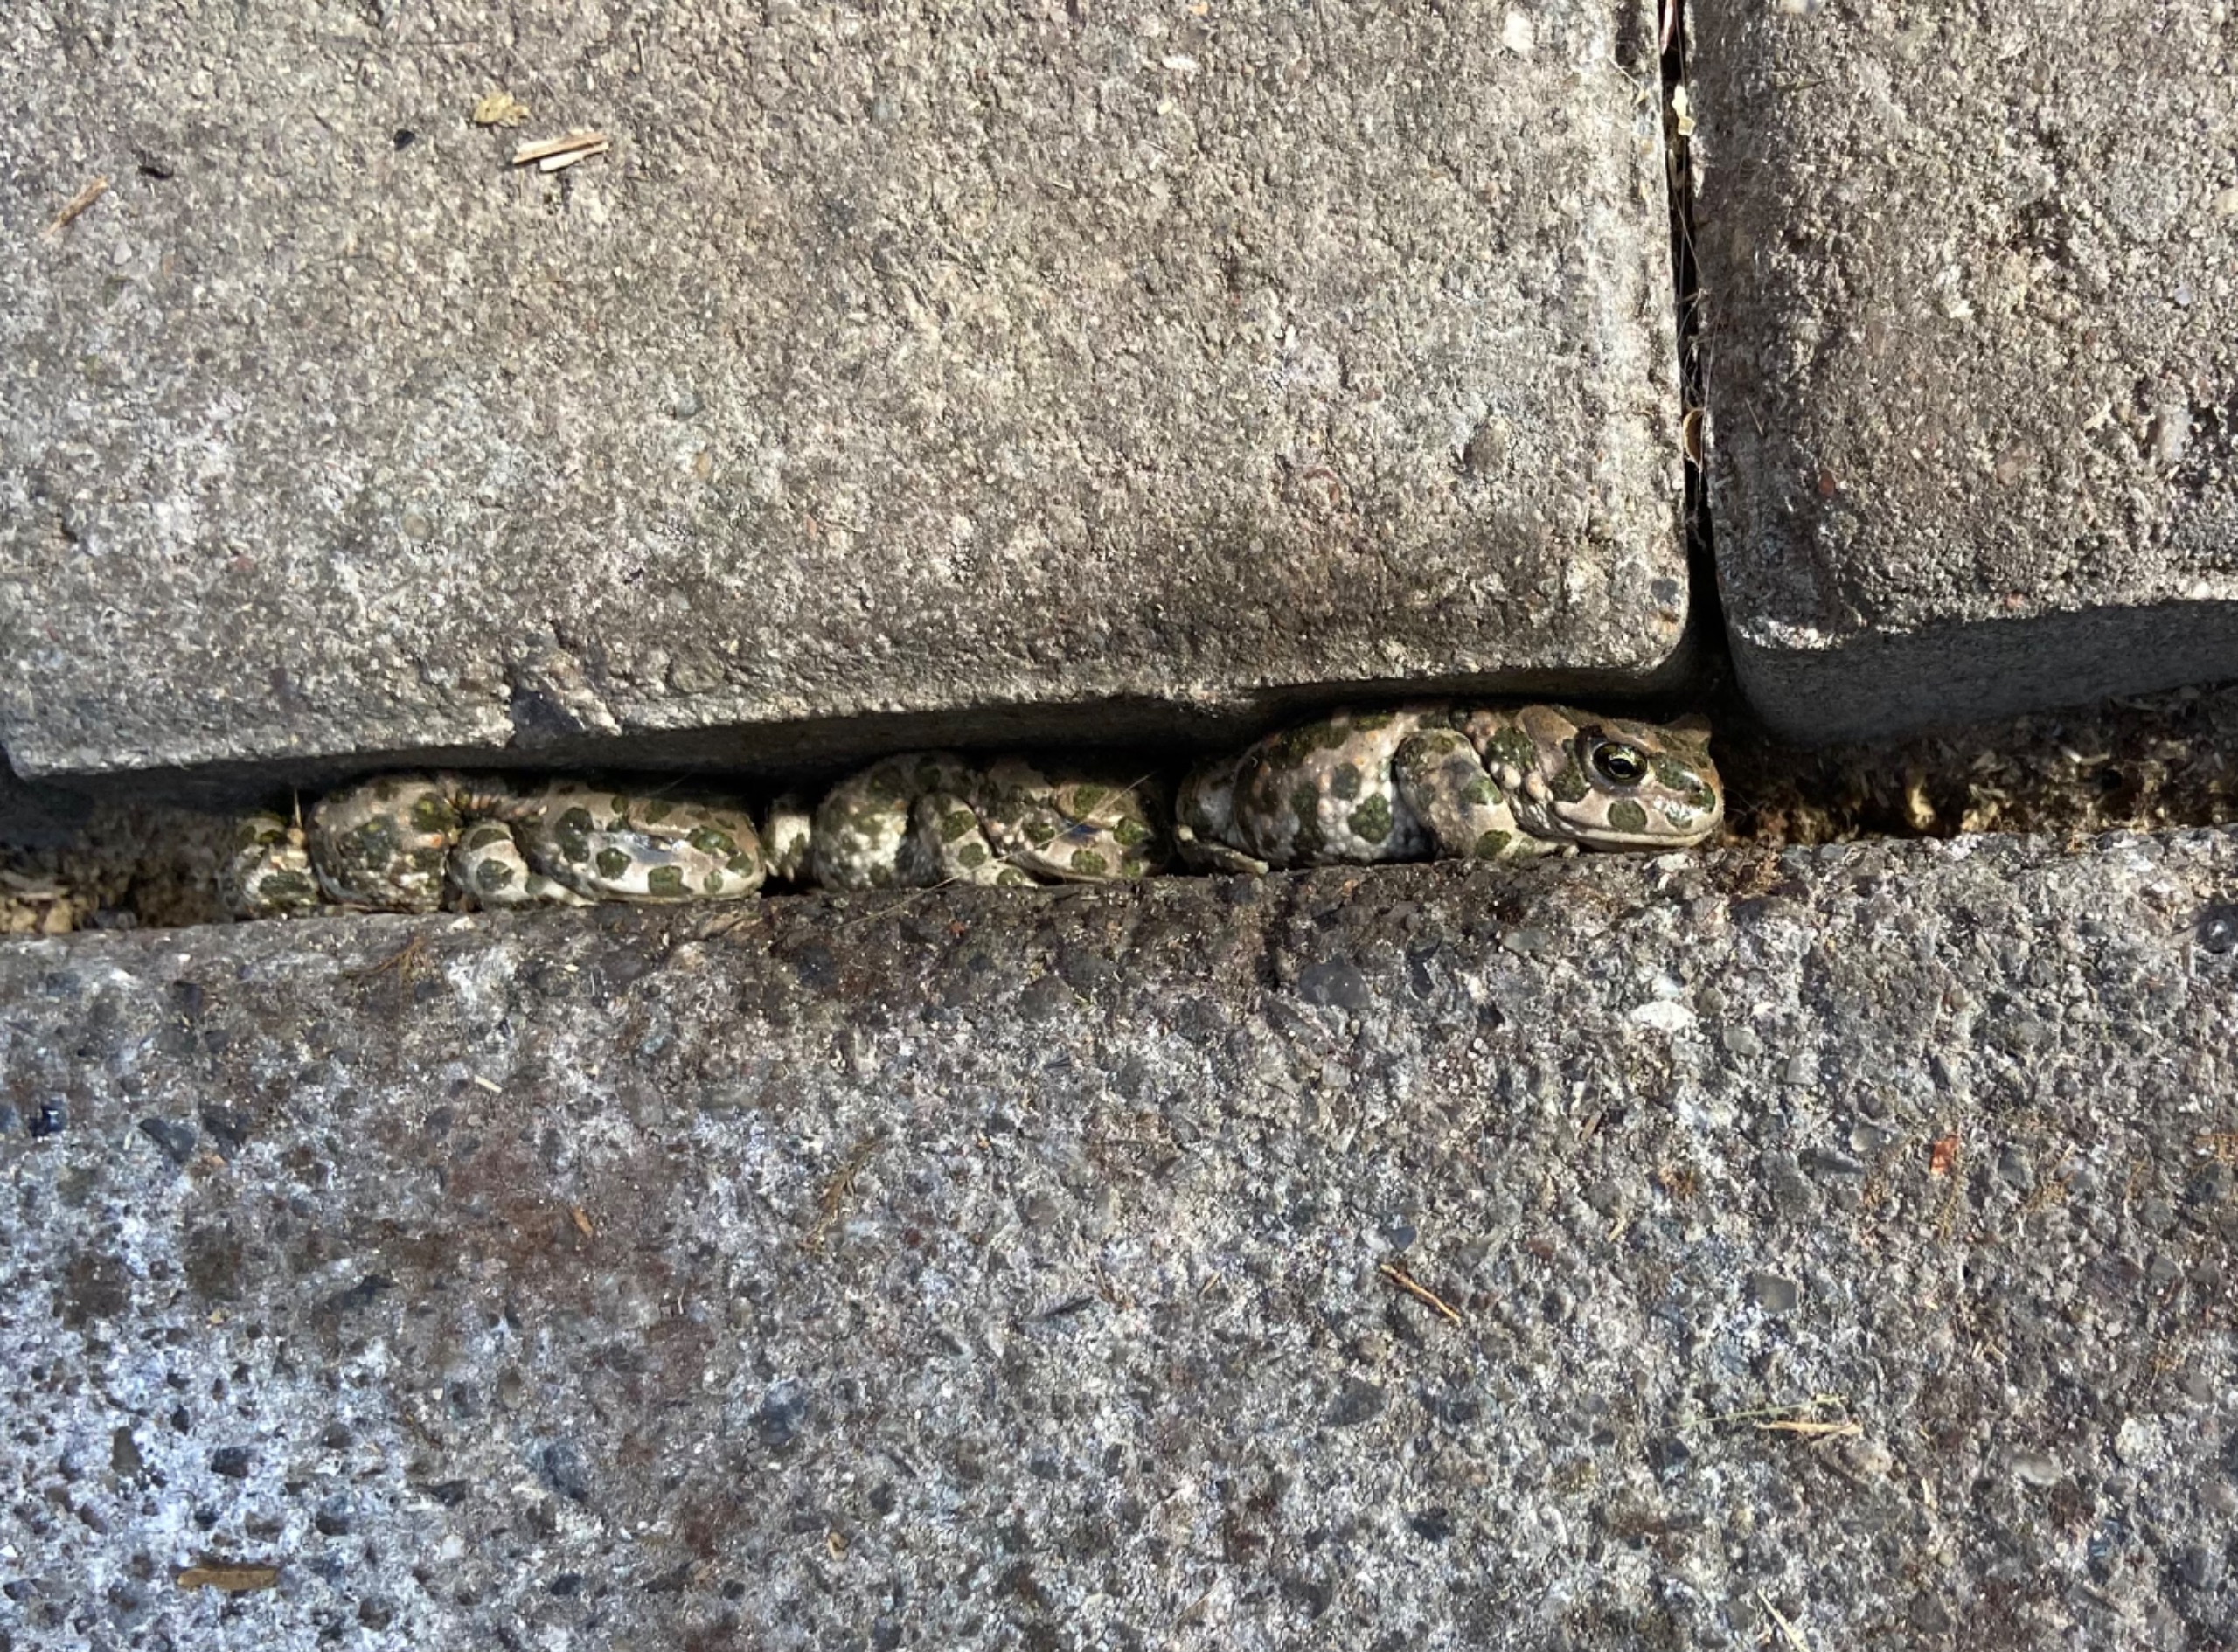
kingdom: Animalia
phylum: Chordata
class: Amphibia
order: Anura
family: Bufonidae
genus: Bufotes
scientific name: Bufotes viridis
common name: Grønbroget tudse
